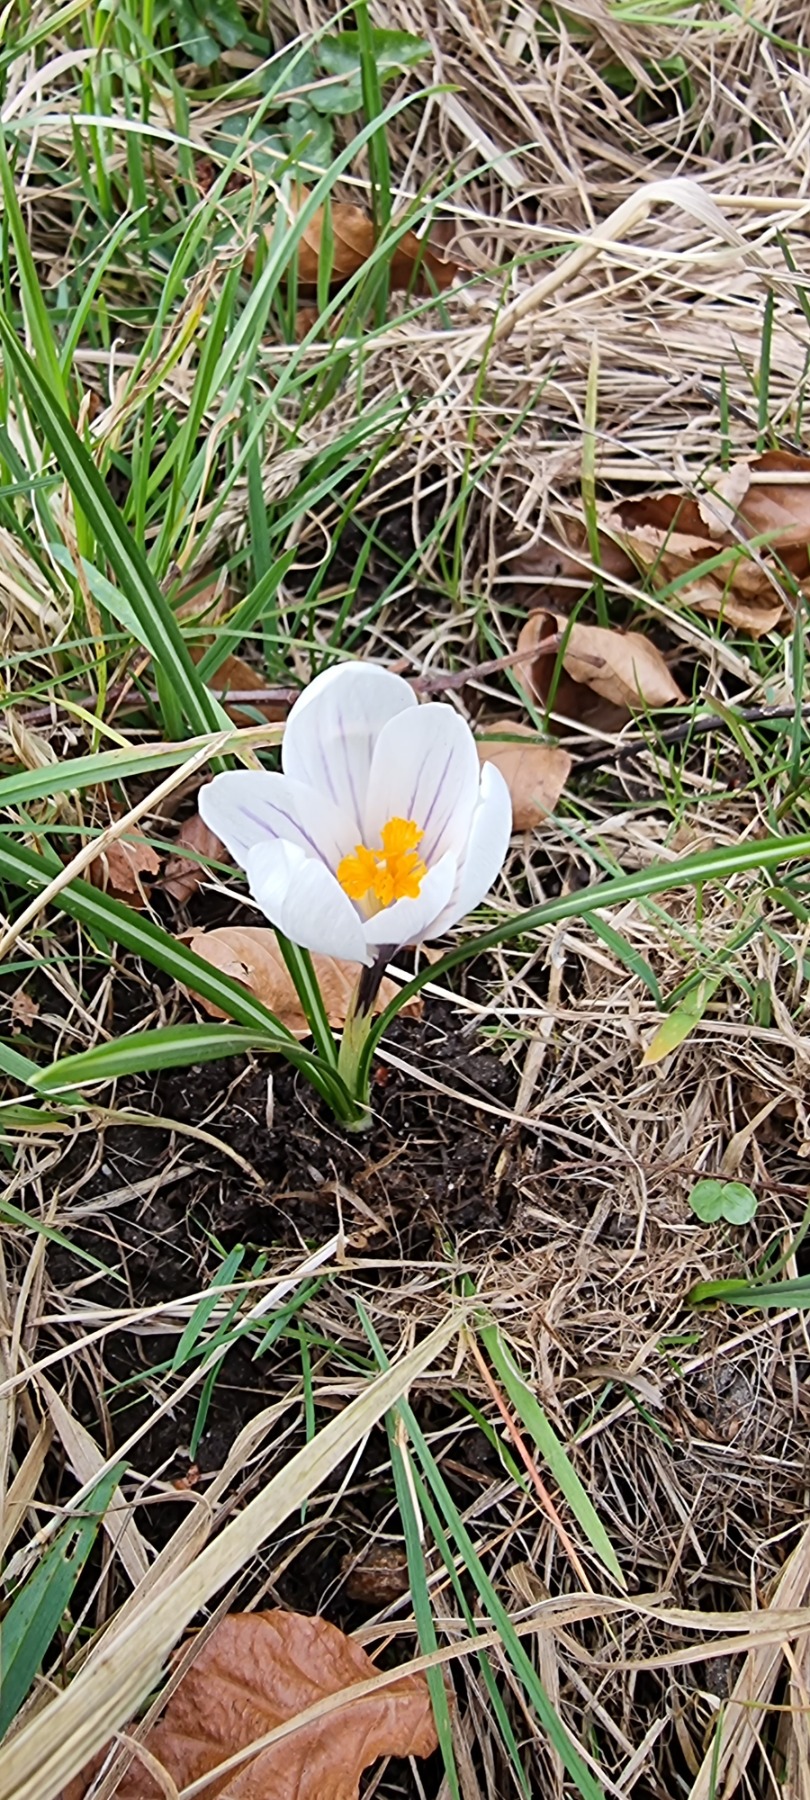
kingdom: Plantae
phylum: Tracheophyta
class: Liliopsida
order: Asparagales
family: Iridaceae
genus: Crocus
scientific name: Crocus vernus
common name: Vår-krokus
